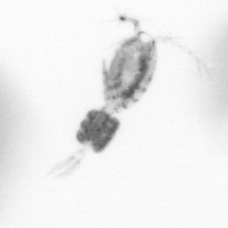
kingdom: Animalia
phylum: Arthropoda
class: Copepoda
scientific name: Copepoda
